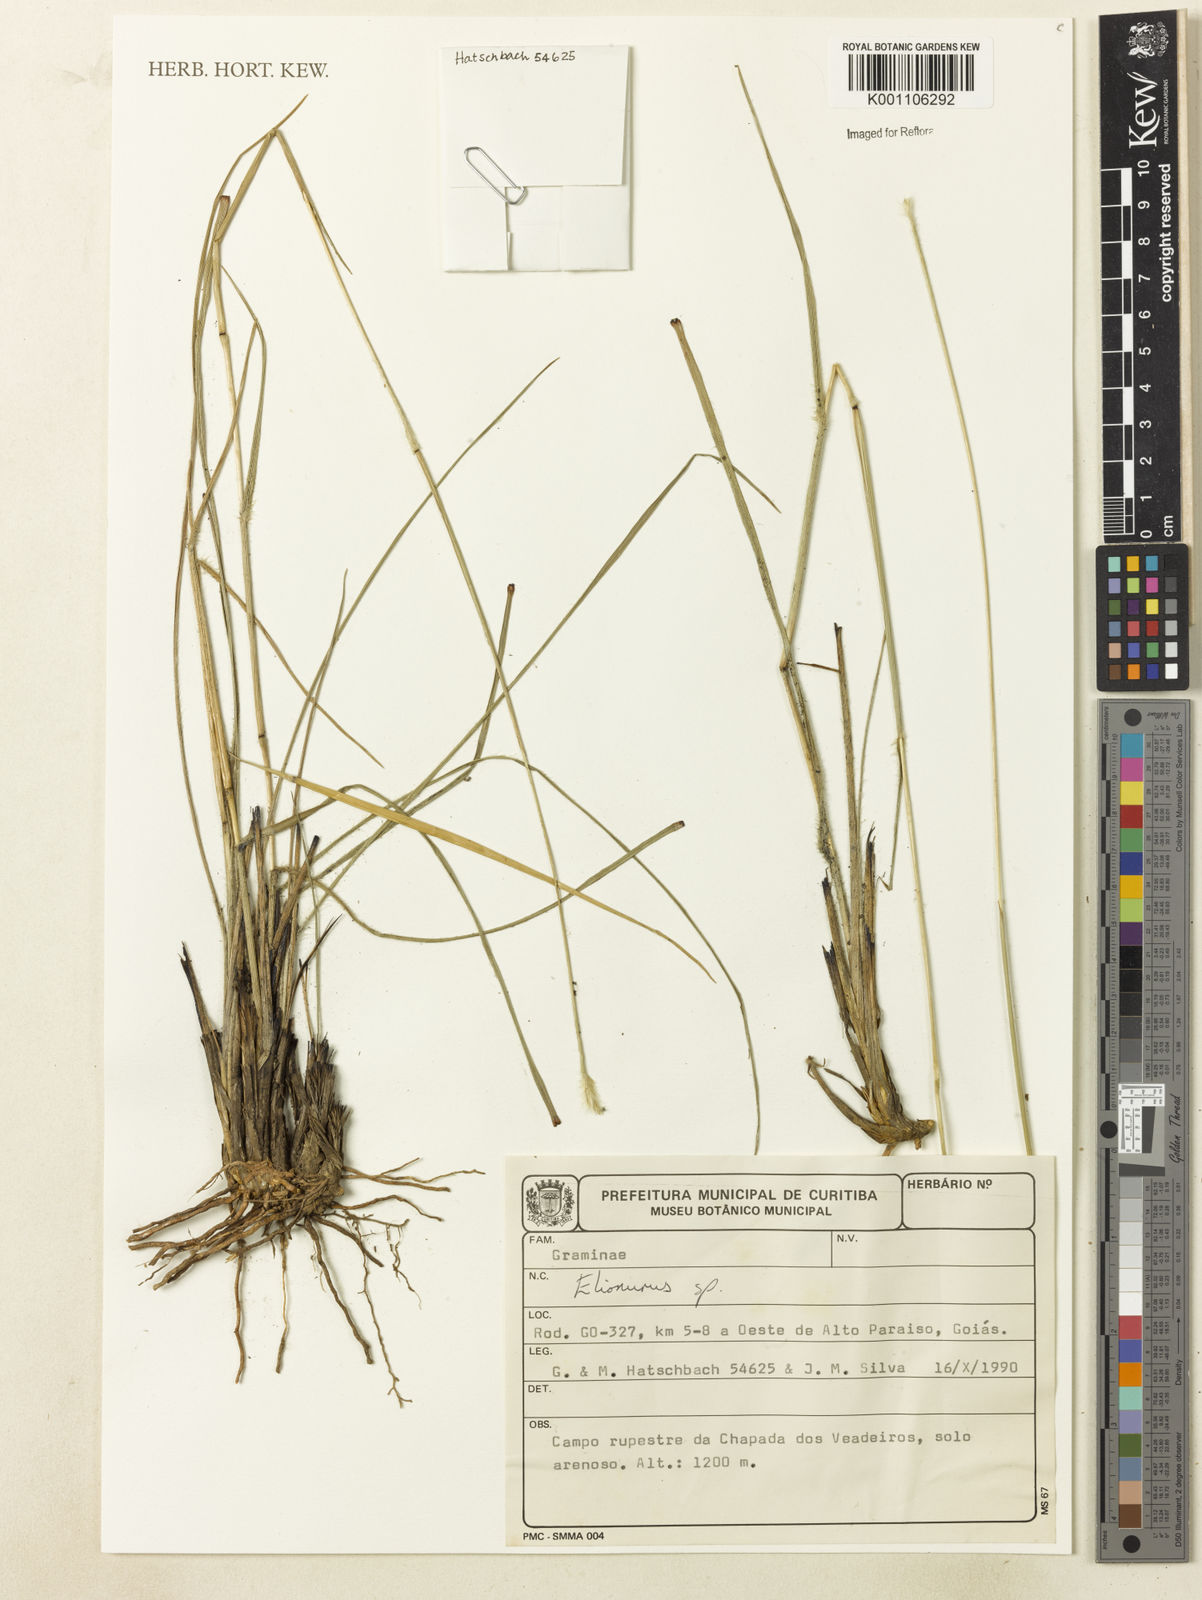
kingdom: Plantae
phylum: Tracheophyta
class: Liliopsida
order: Poales
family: Poaceae
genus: Elionurus
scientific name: Elionurus
